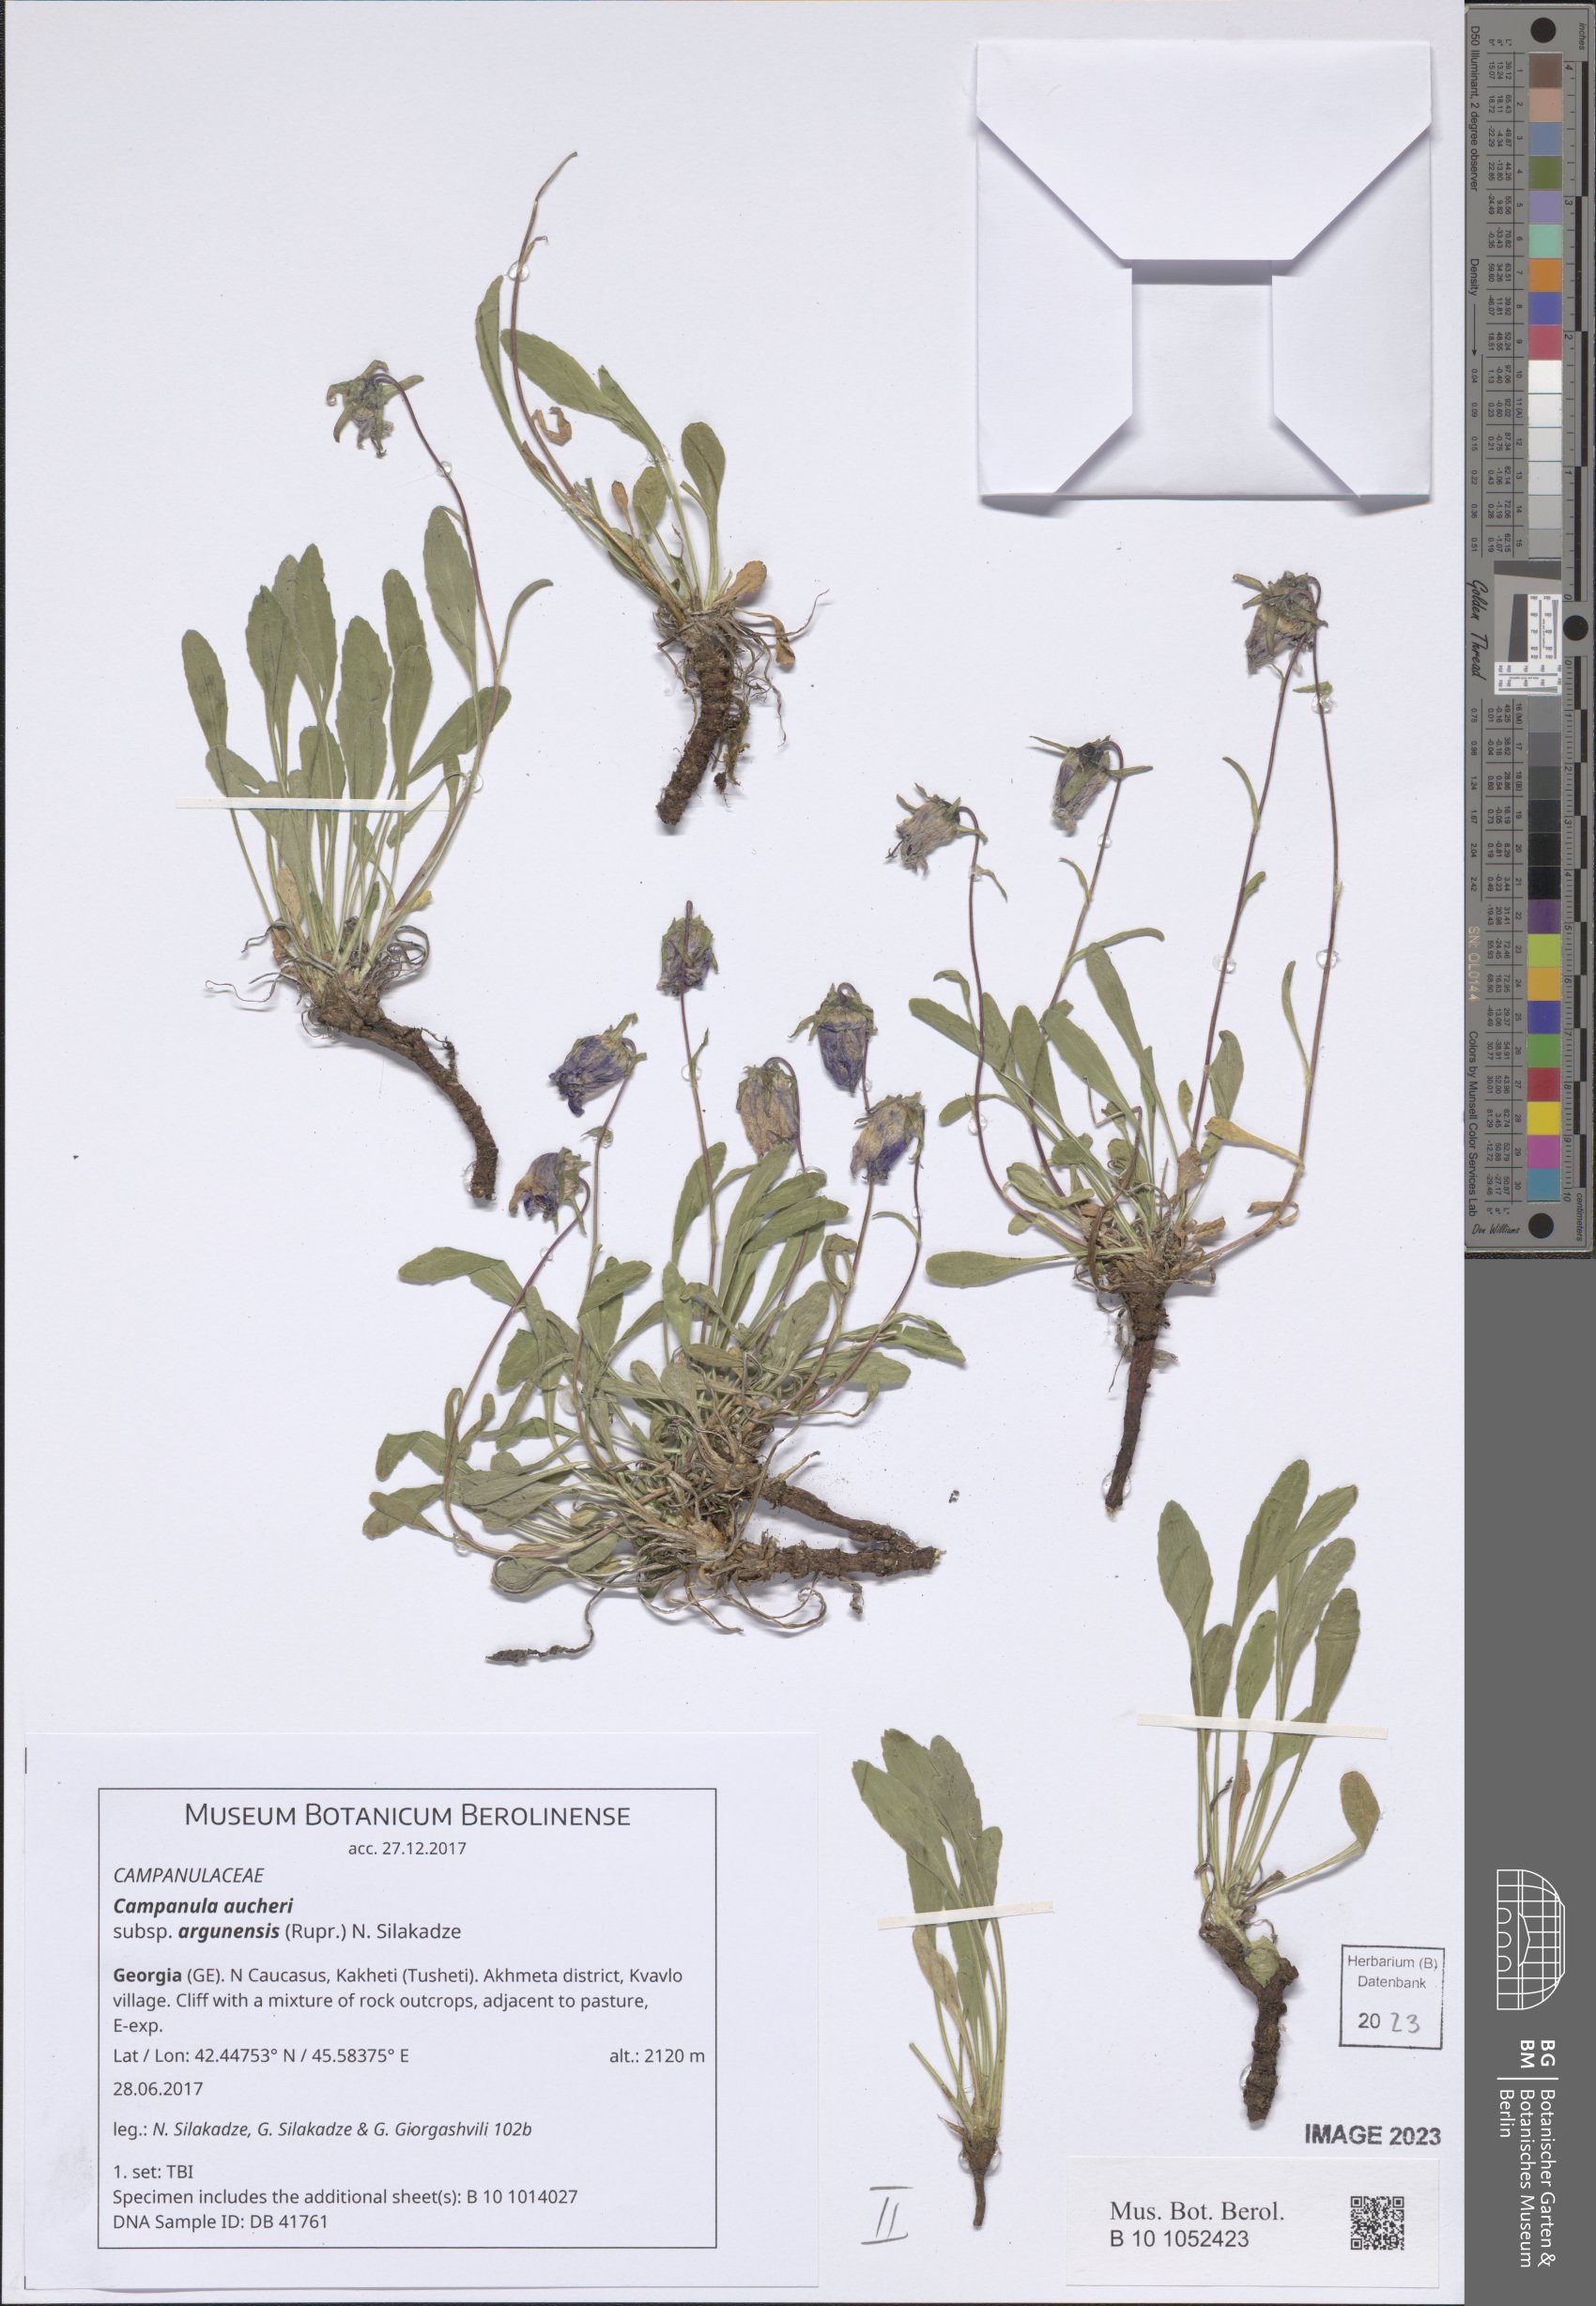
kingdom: Plantae
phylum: Tracheophyta
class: Magnoliopsida
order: Asterales
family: Campanulaceae
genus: Campanula
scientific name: Campanula saxifraga
